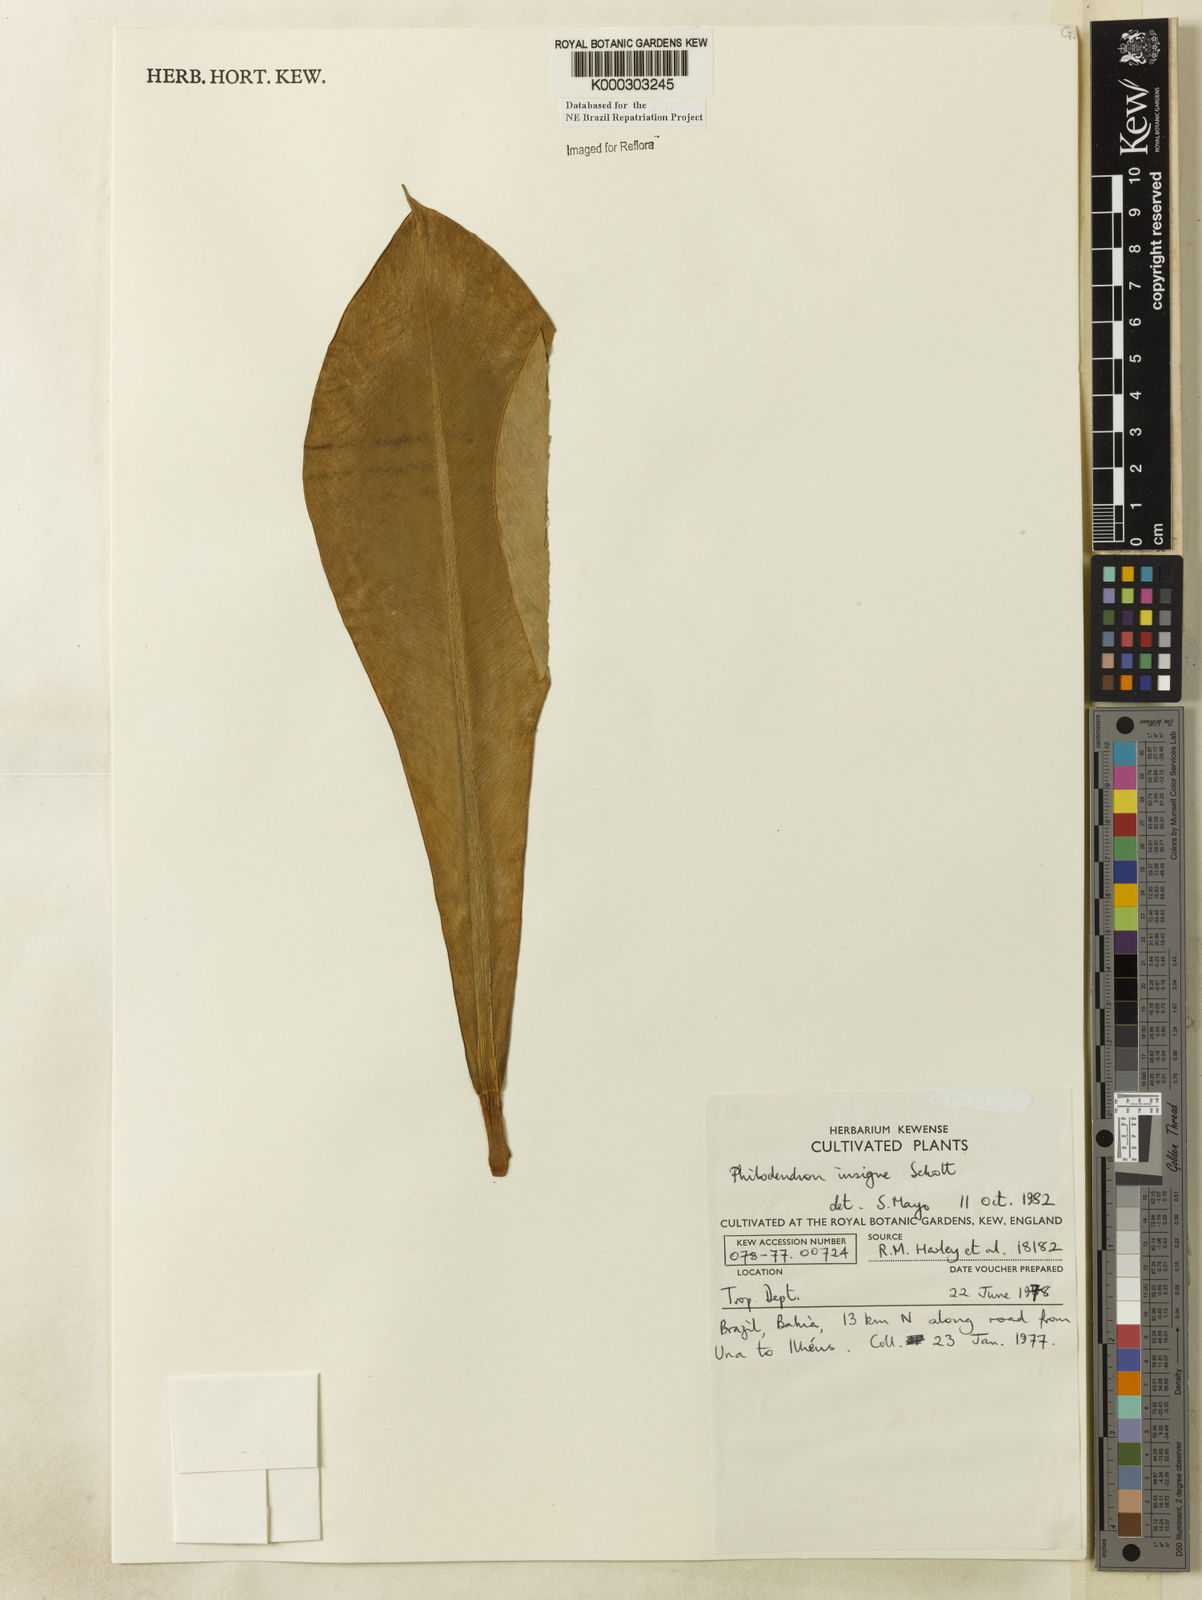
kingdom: Plantae
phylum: Tracheophyta
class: Liliopsida
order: Alismatales
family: Araceae
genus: Philodendron
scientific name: Philodendron insigne
